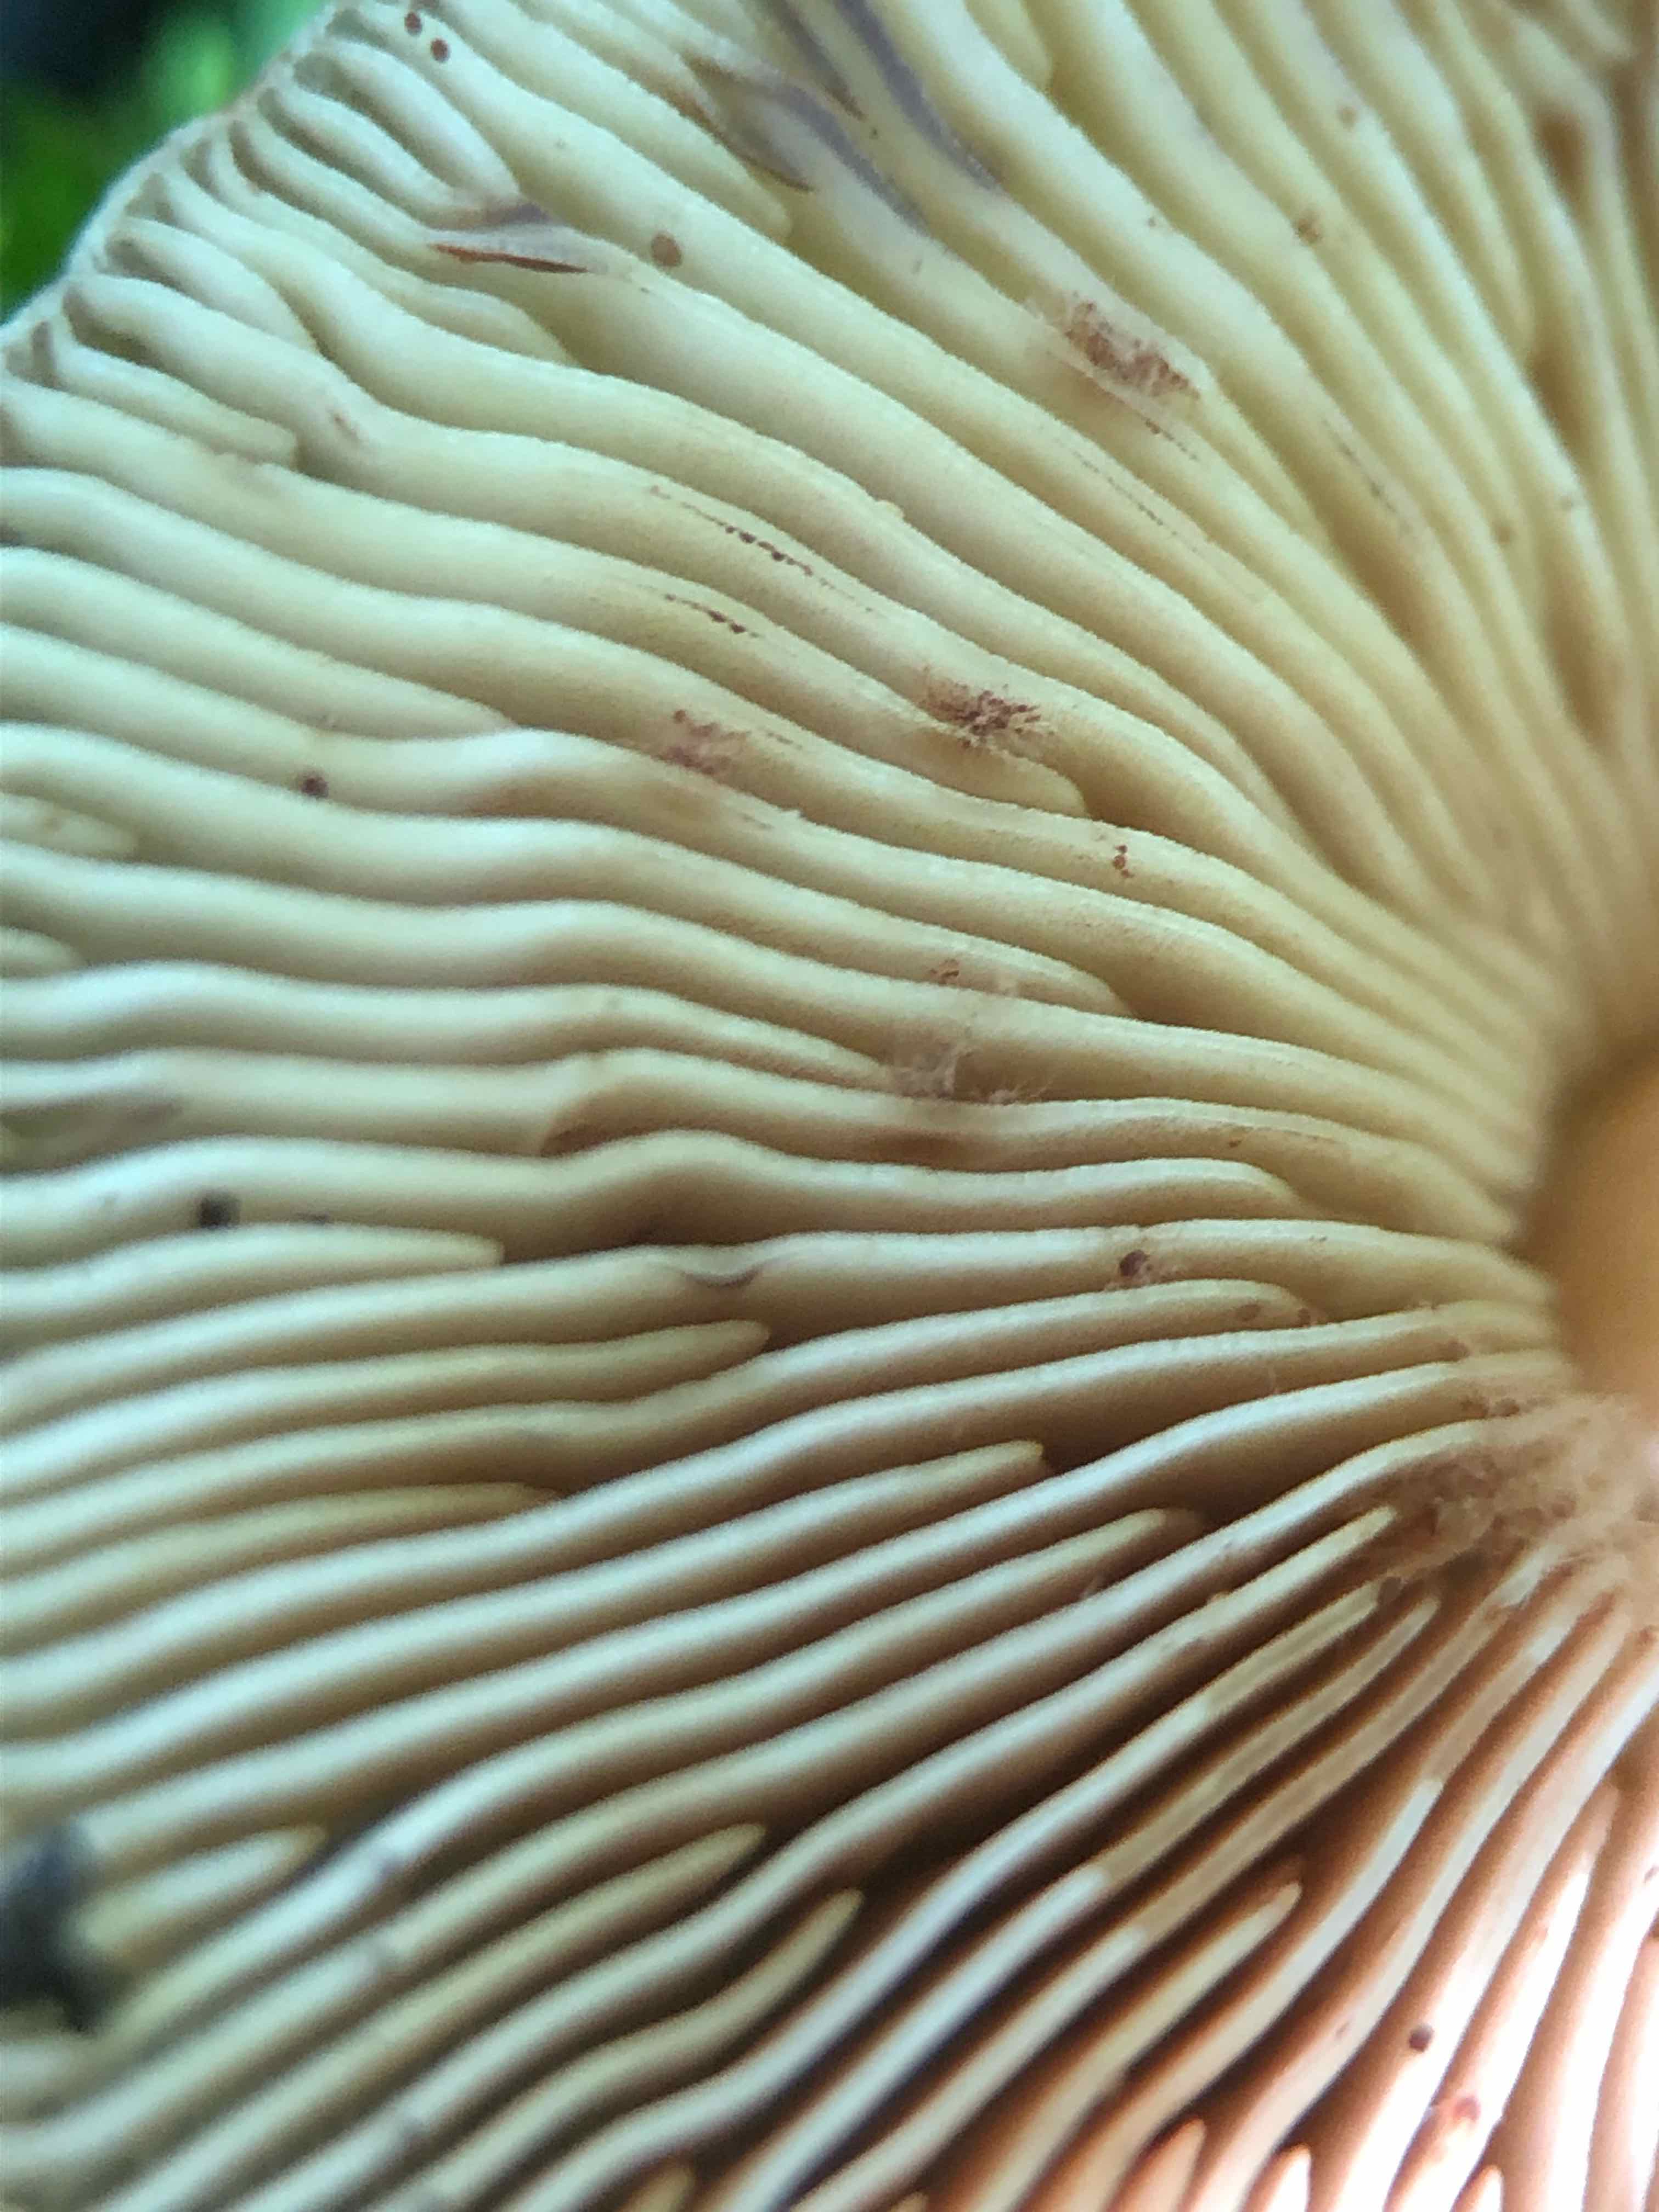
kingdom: Fungi
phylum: Basidiomycota
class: Agaricomycetes
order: Agaricales
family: Pluteaceae
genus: Pluteus
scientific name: Pluteus phlebophorus
